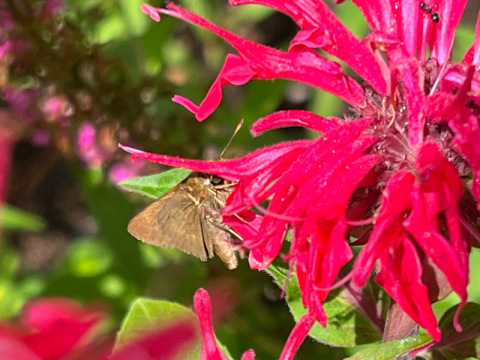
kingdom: Animalia
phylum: Arthropoda
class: Insecta
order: Lepidoptera
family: Hesperiidae
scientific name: Hesperiidae
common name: Skippers
